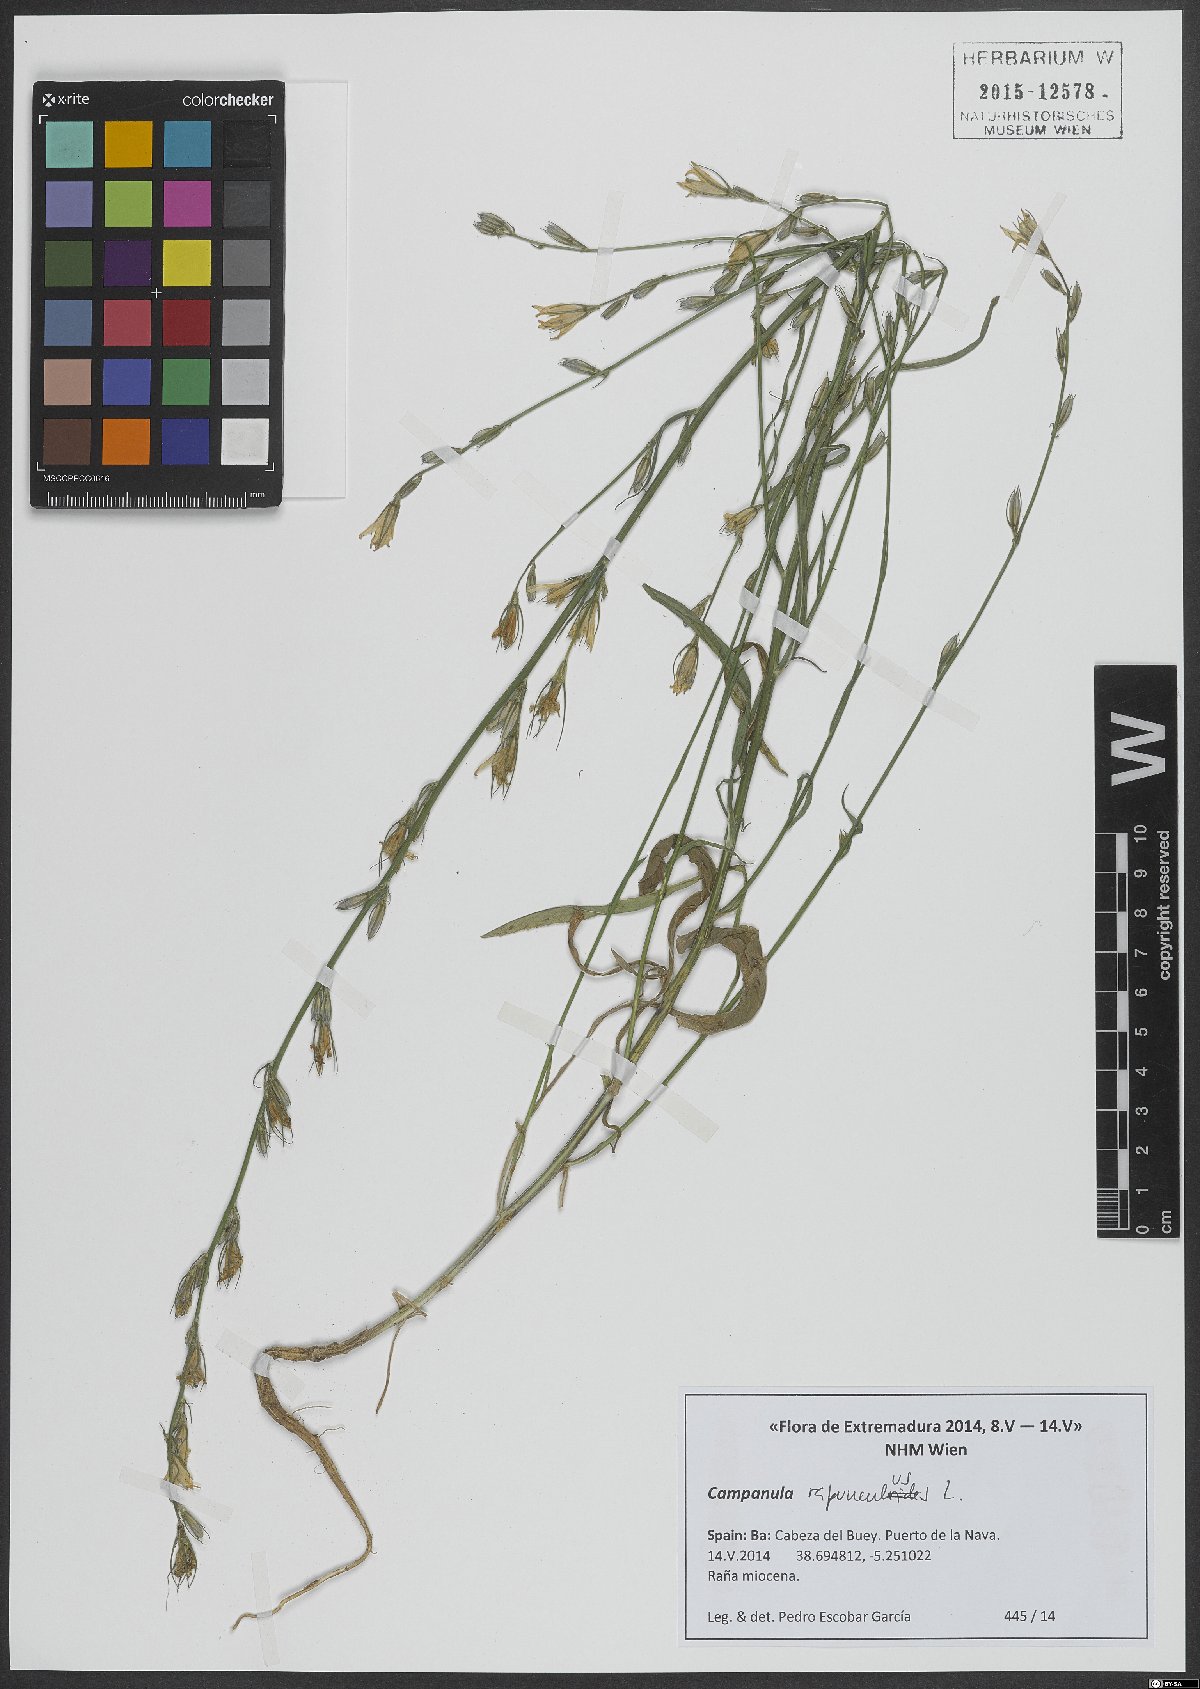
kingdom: Plantae
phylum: Tracheophyta
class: Magnoliopsida
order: Asterales
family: Campanulaceae
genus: Campanula
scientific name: Campanula rapunculoides
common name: Creeping bellflower
